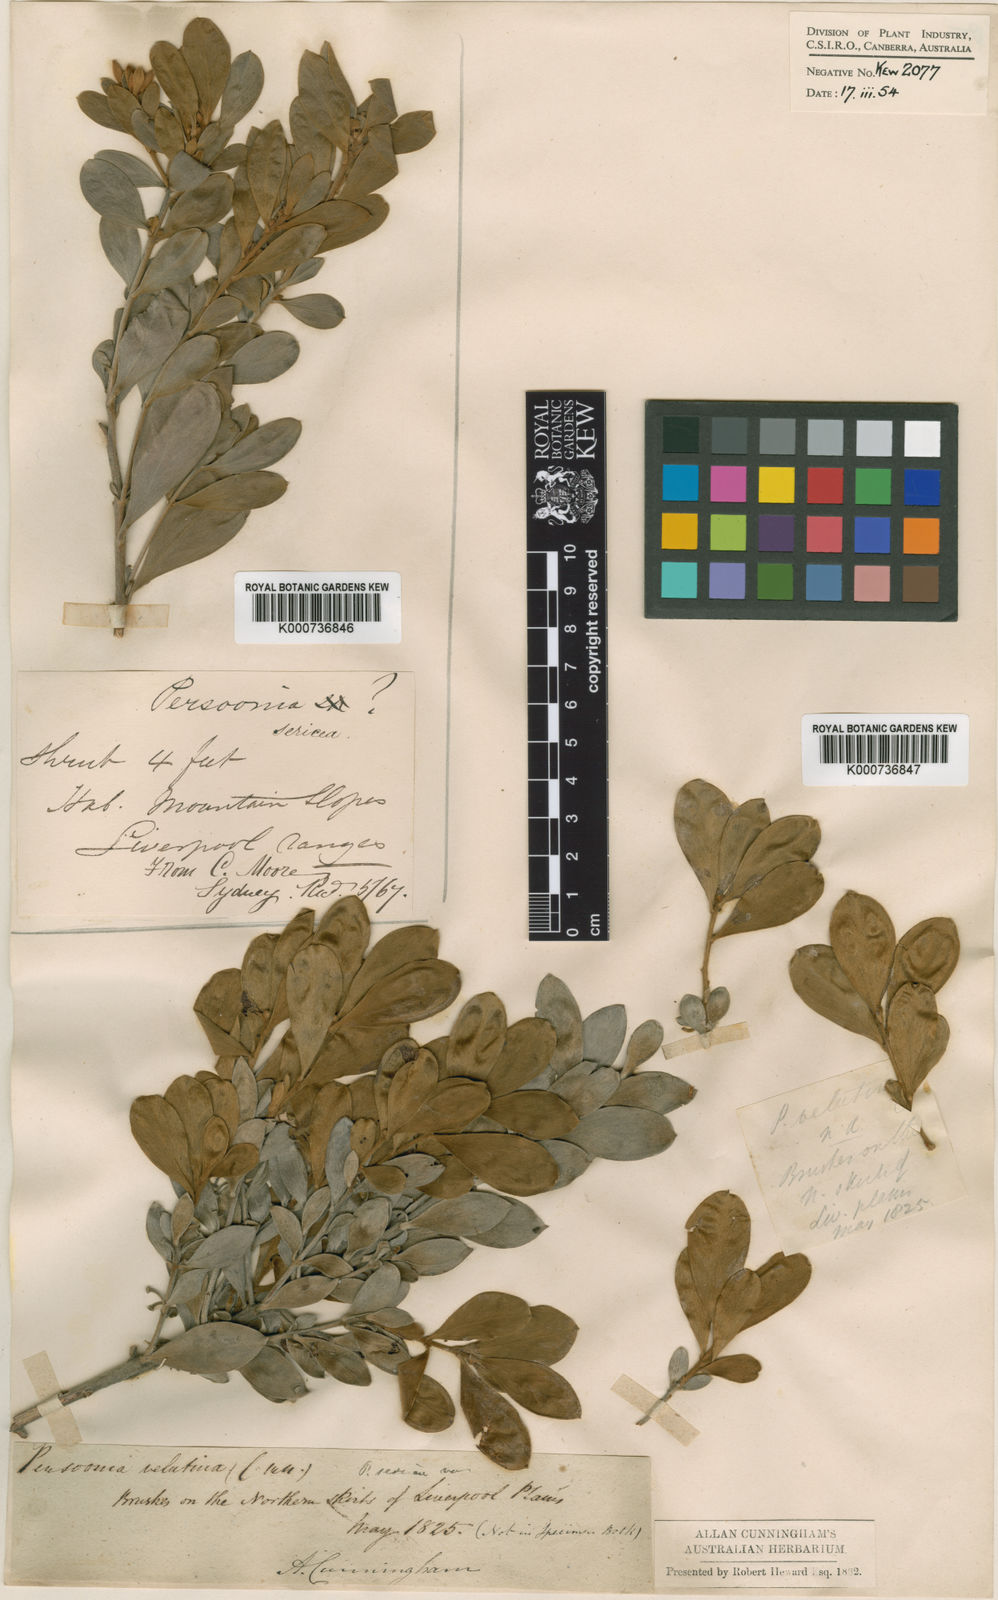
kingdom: Plantae
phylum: Tracheophyta
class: Magnoliopsida
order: Proteales
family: Proteaceae
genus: Persoonia
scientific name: Persoonia sericea
